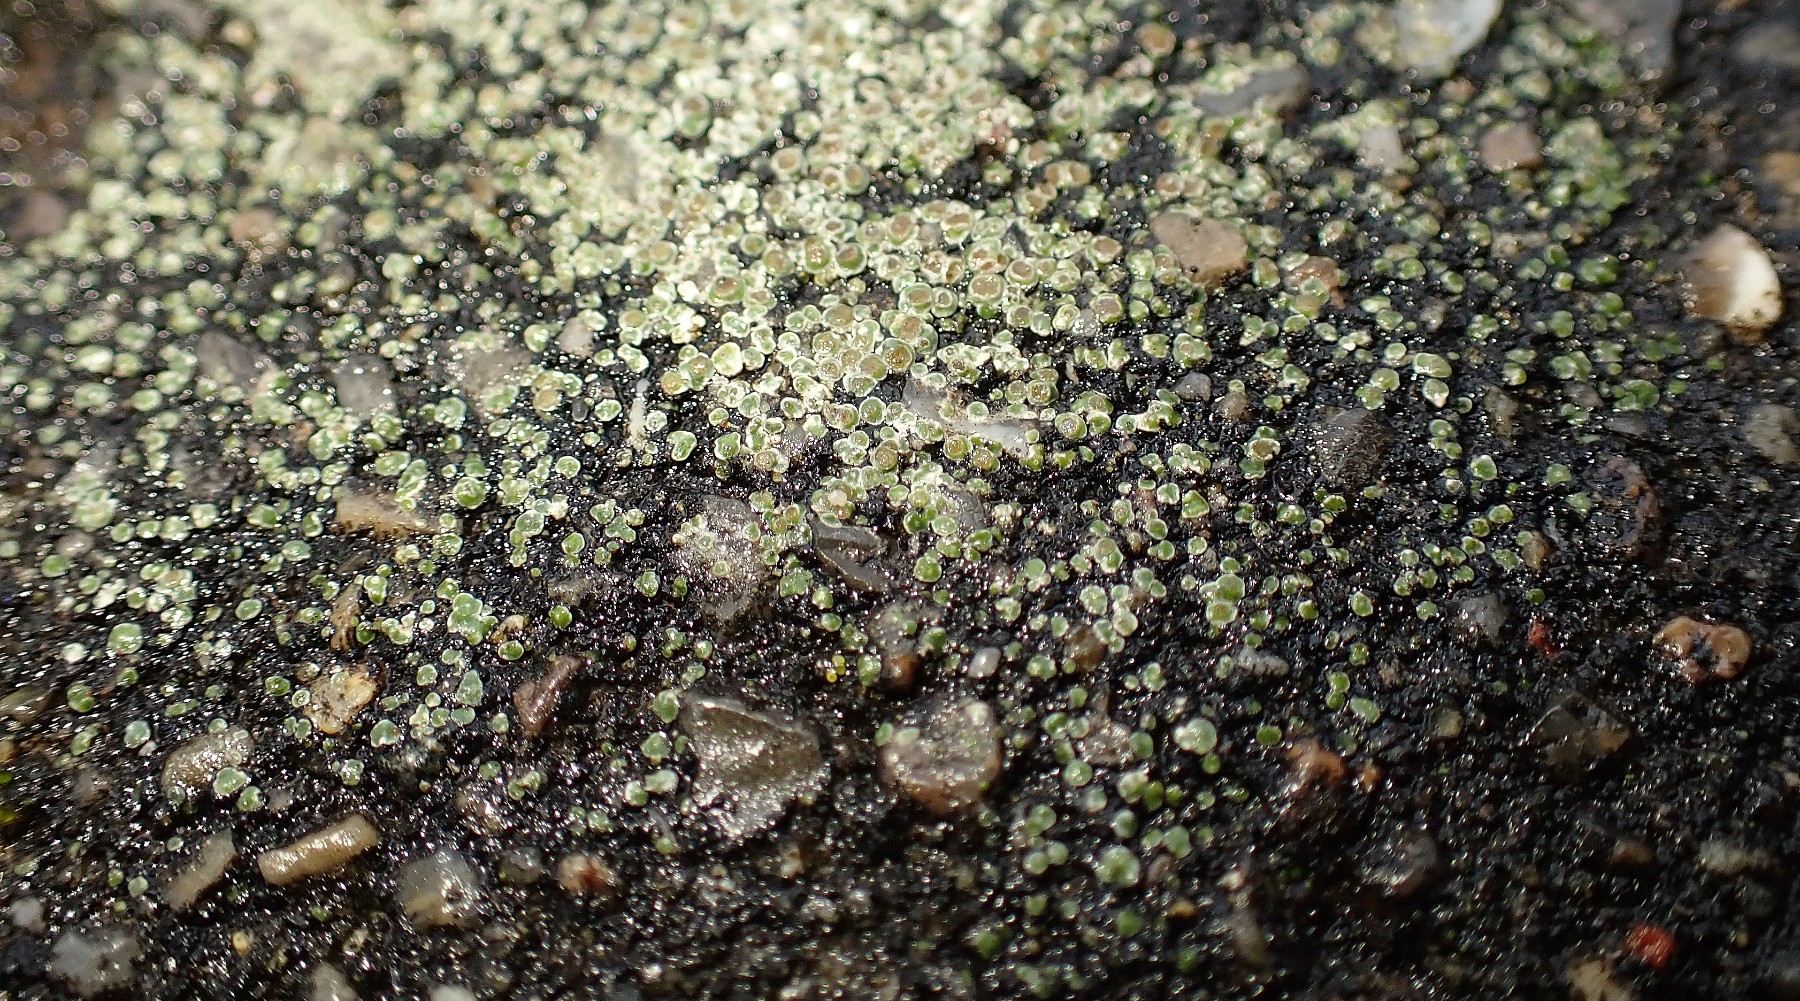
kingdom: Fungi
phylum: Ascomycota
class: Lecanoromycetes
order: Pertusariales
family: Megasporaceae
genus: Circinaria
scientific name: Circinaria contorta
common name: indviklet hulskivelav
